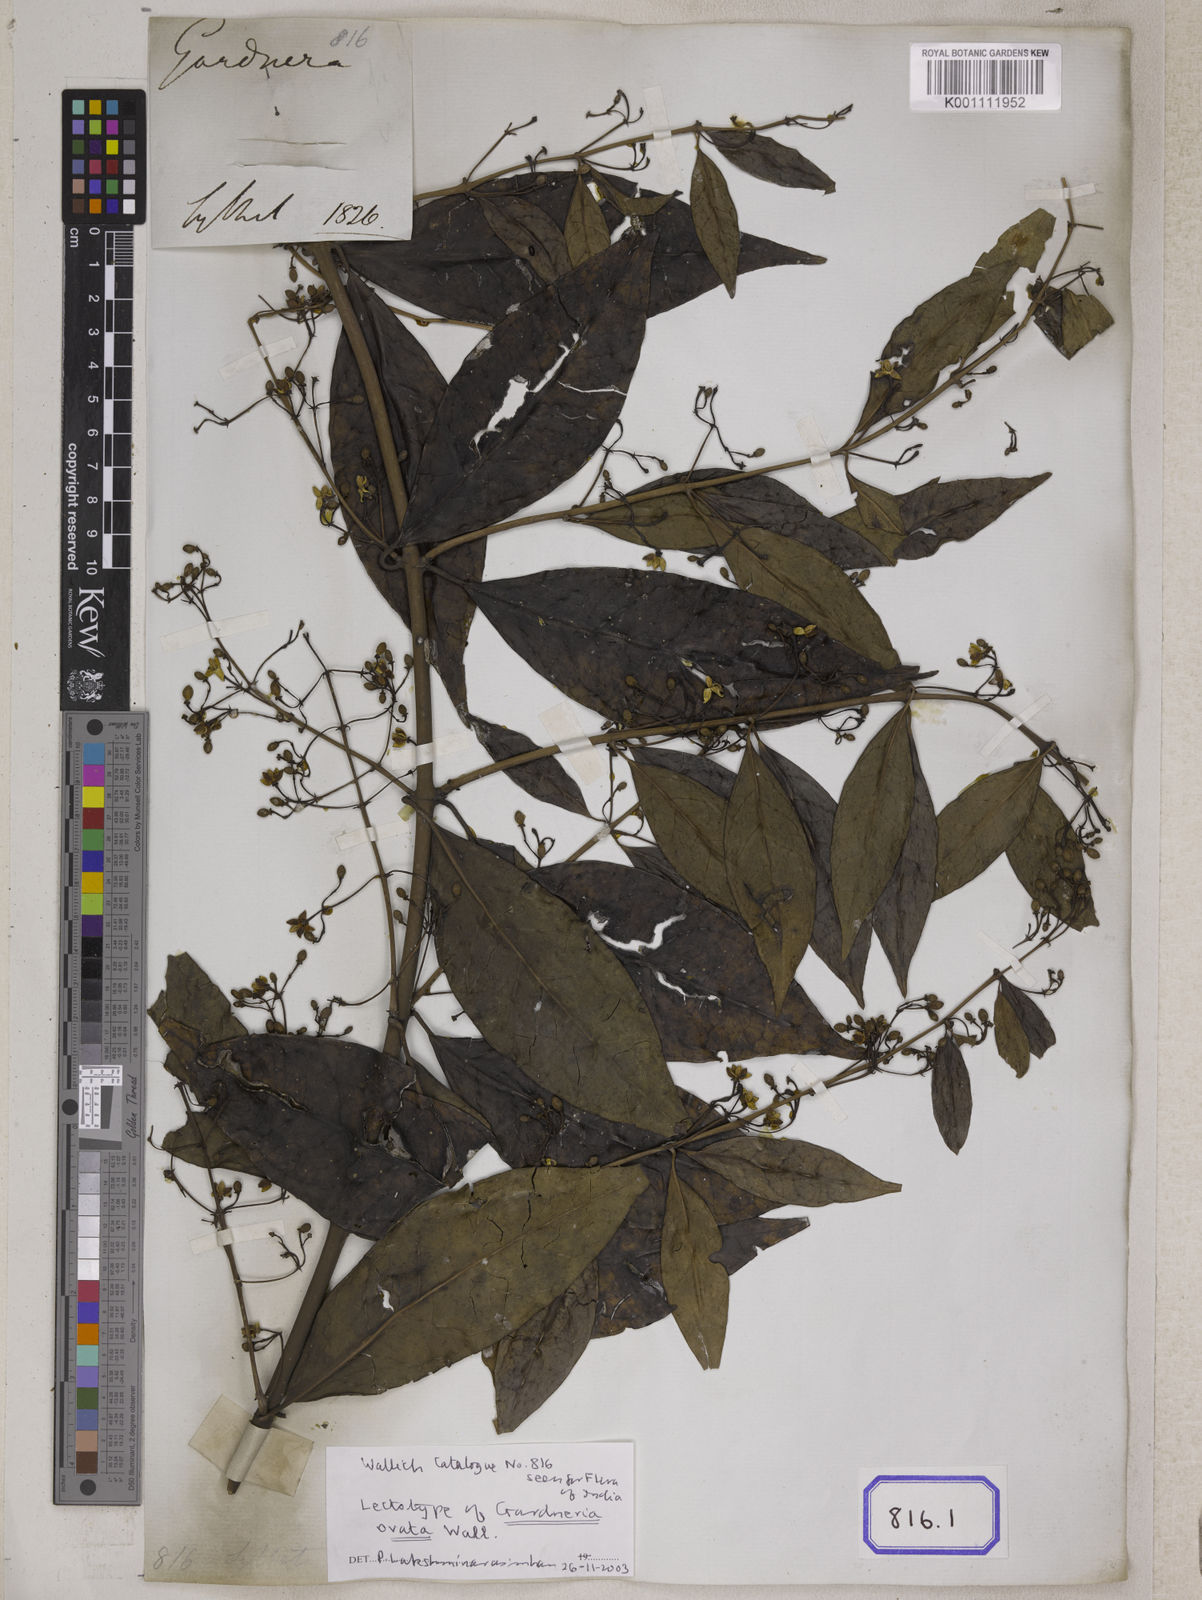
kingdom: Plantae
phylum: Tracheophyta
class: Magnoliopsida
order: Gentianales
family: Loganiaceae
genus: Gardneria
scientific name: Gardneria ovata
